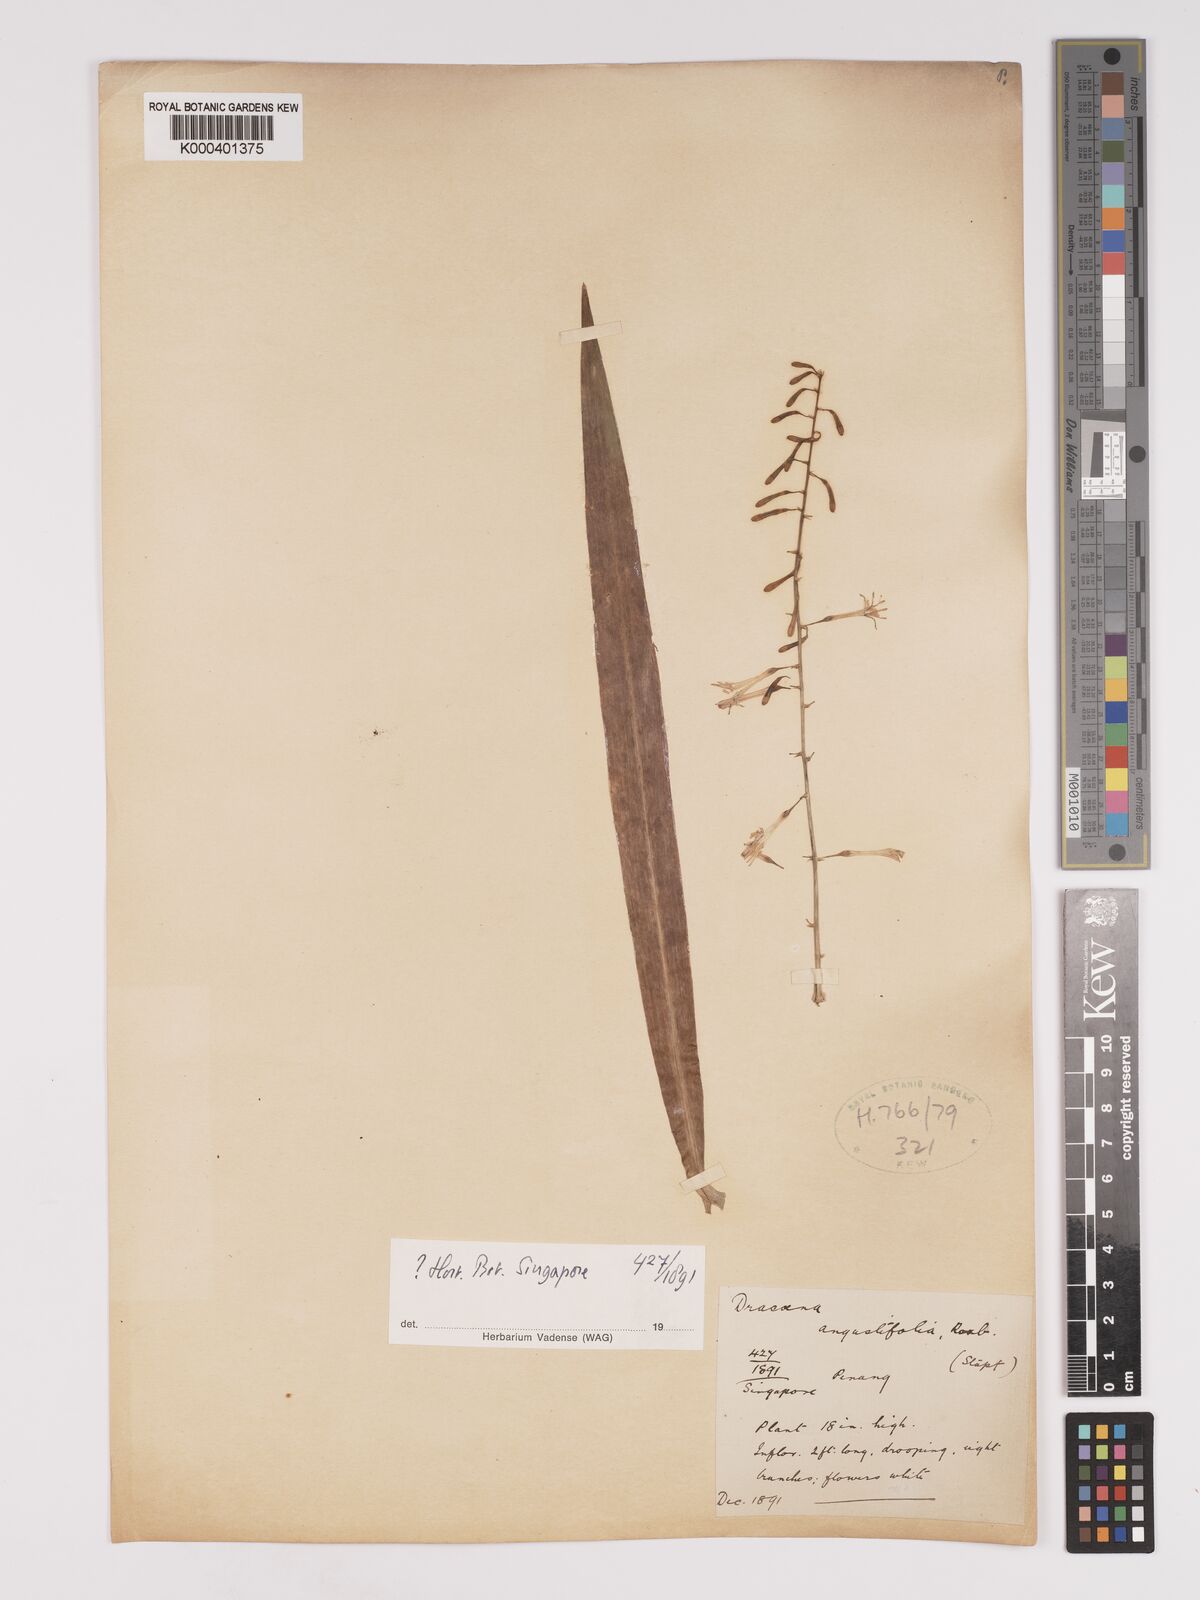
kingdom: Plantae
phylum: Tracheophyta
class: Liliopsida
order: Asparagales
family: Asparagaceae
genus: Dracaena
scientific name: Dracaena angustifolia
